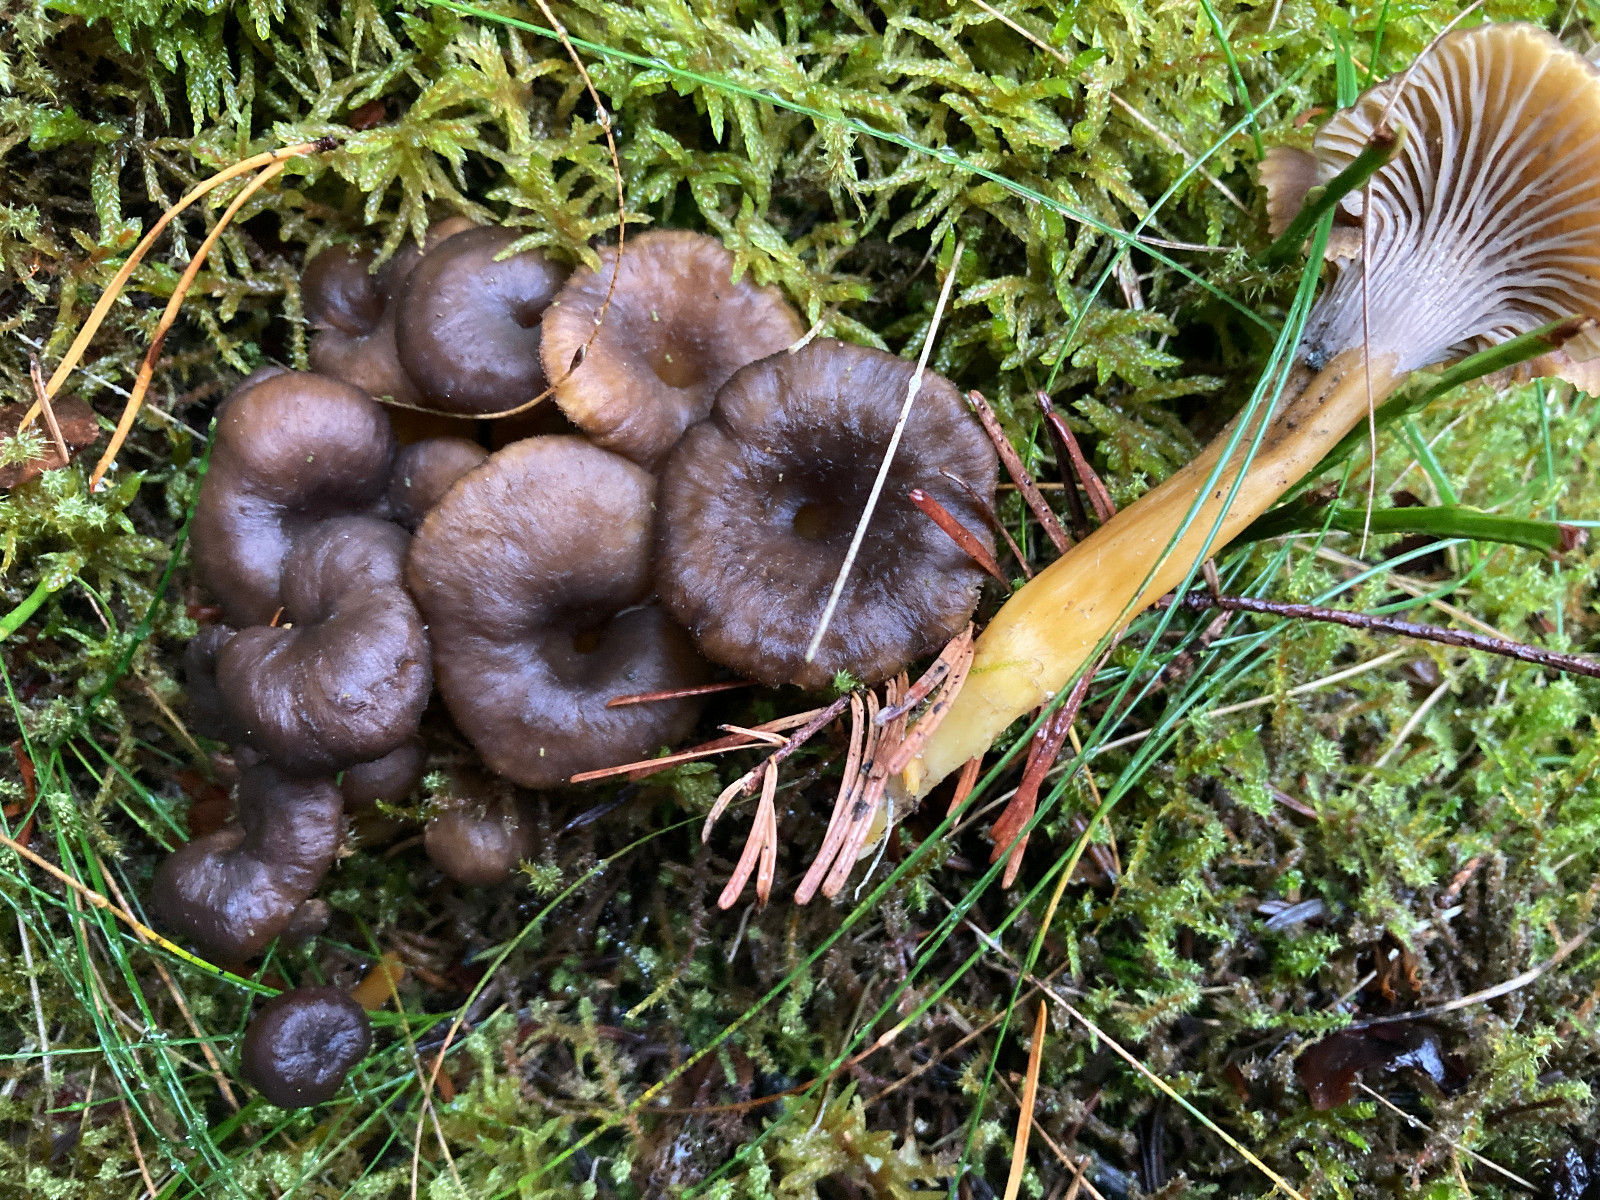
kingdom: Fungi
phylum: Basidiomycota
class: Agaricomycetes
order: Cantharellales
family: Hydnaceae
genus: Craterellus
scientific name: Craterellus tubaeformis
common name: tragt-kantarel
